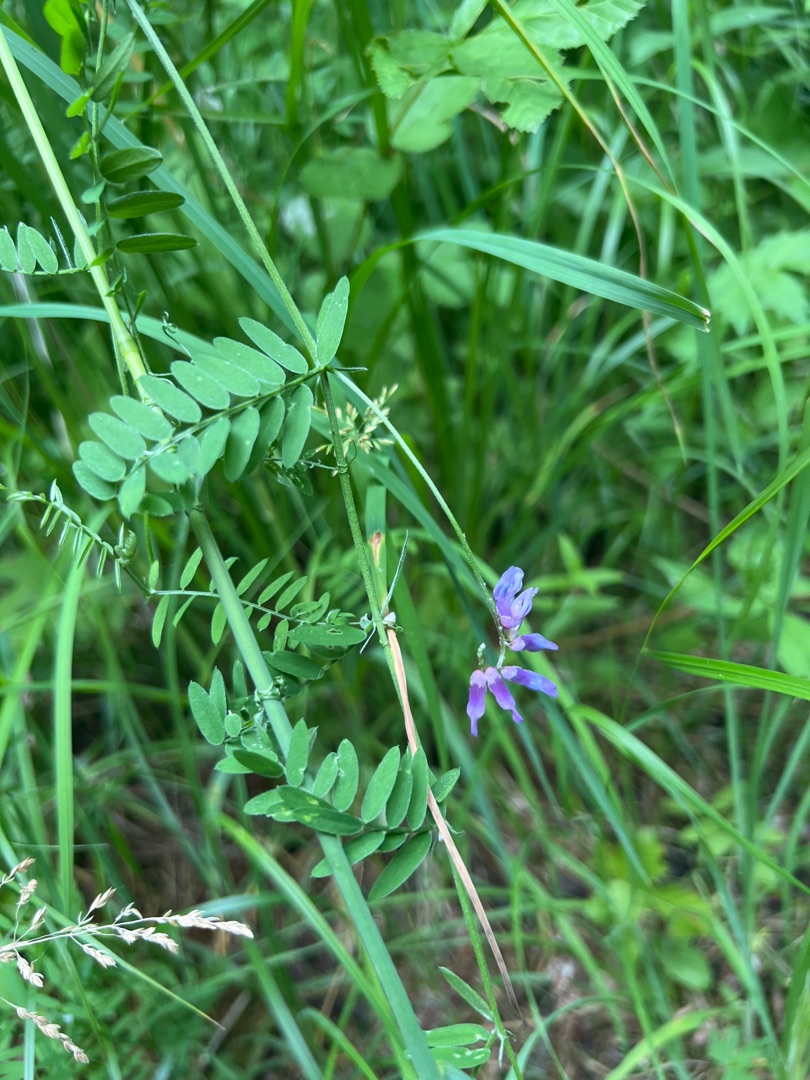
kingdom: Plantae
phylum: Tracheophyta
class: Magnoliopsida
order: Fabales
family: Fabaceae
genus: Vicia
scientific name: Vicia cracca
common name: Muse-vikke
